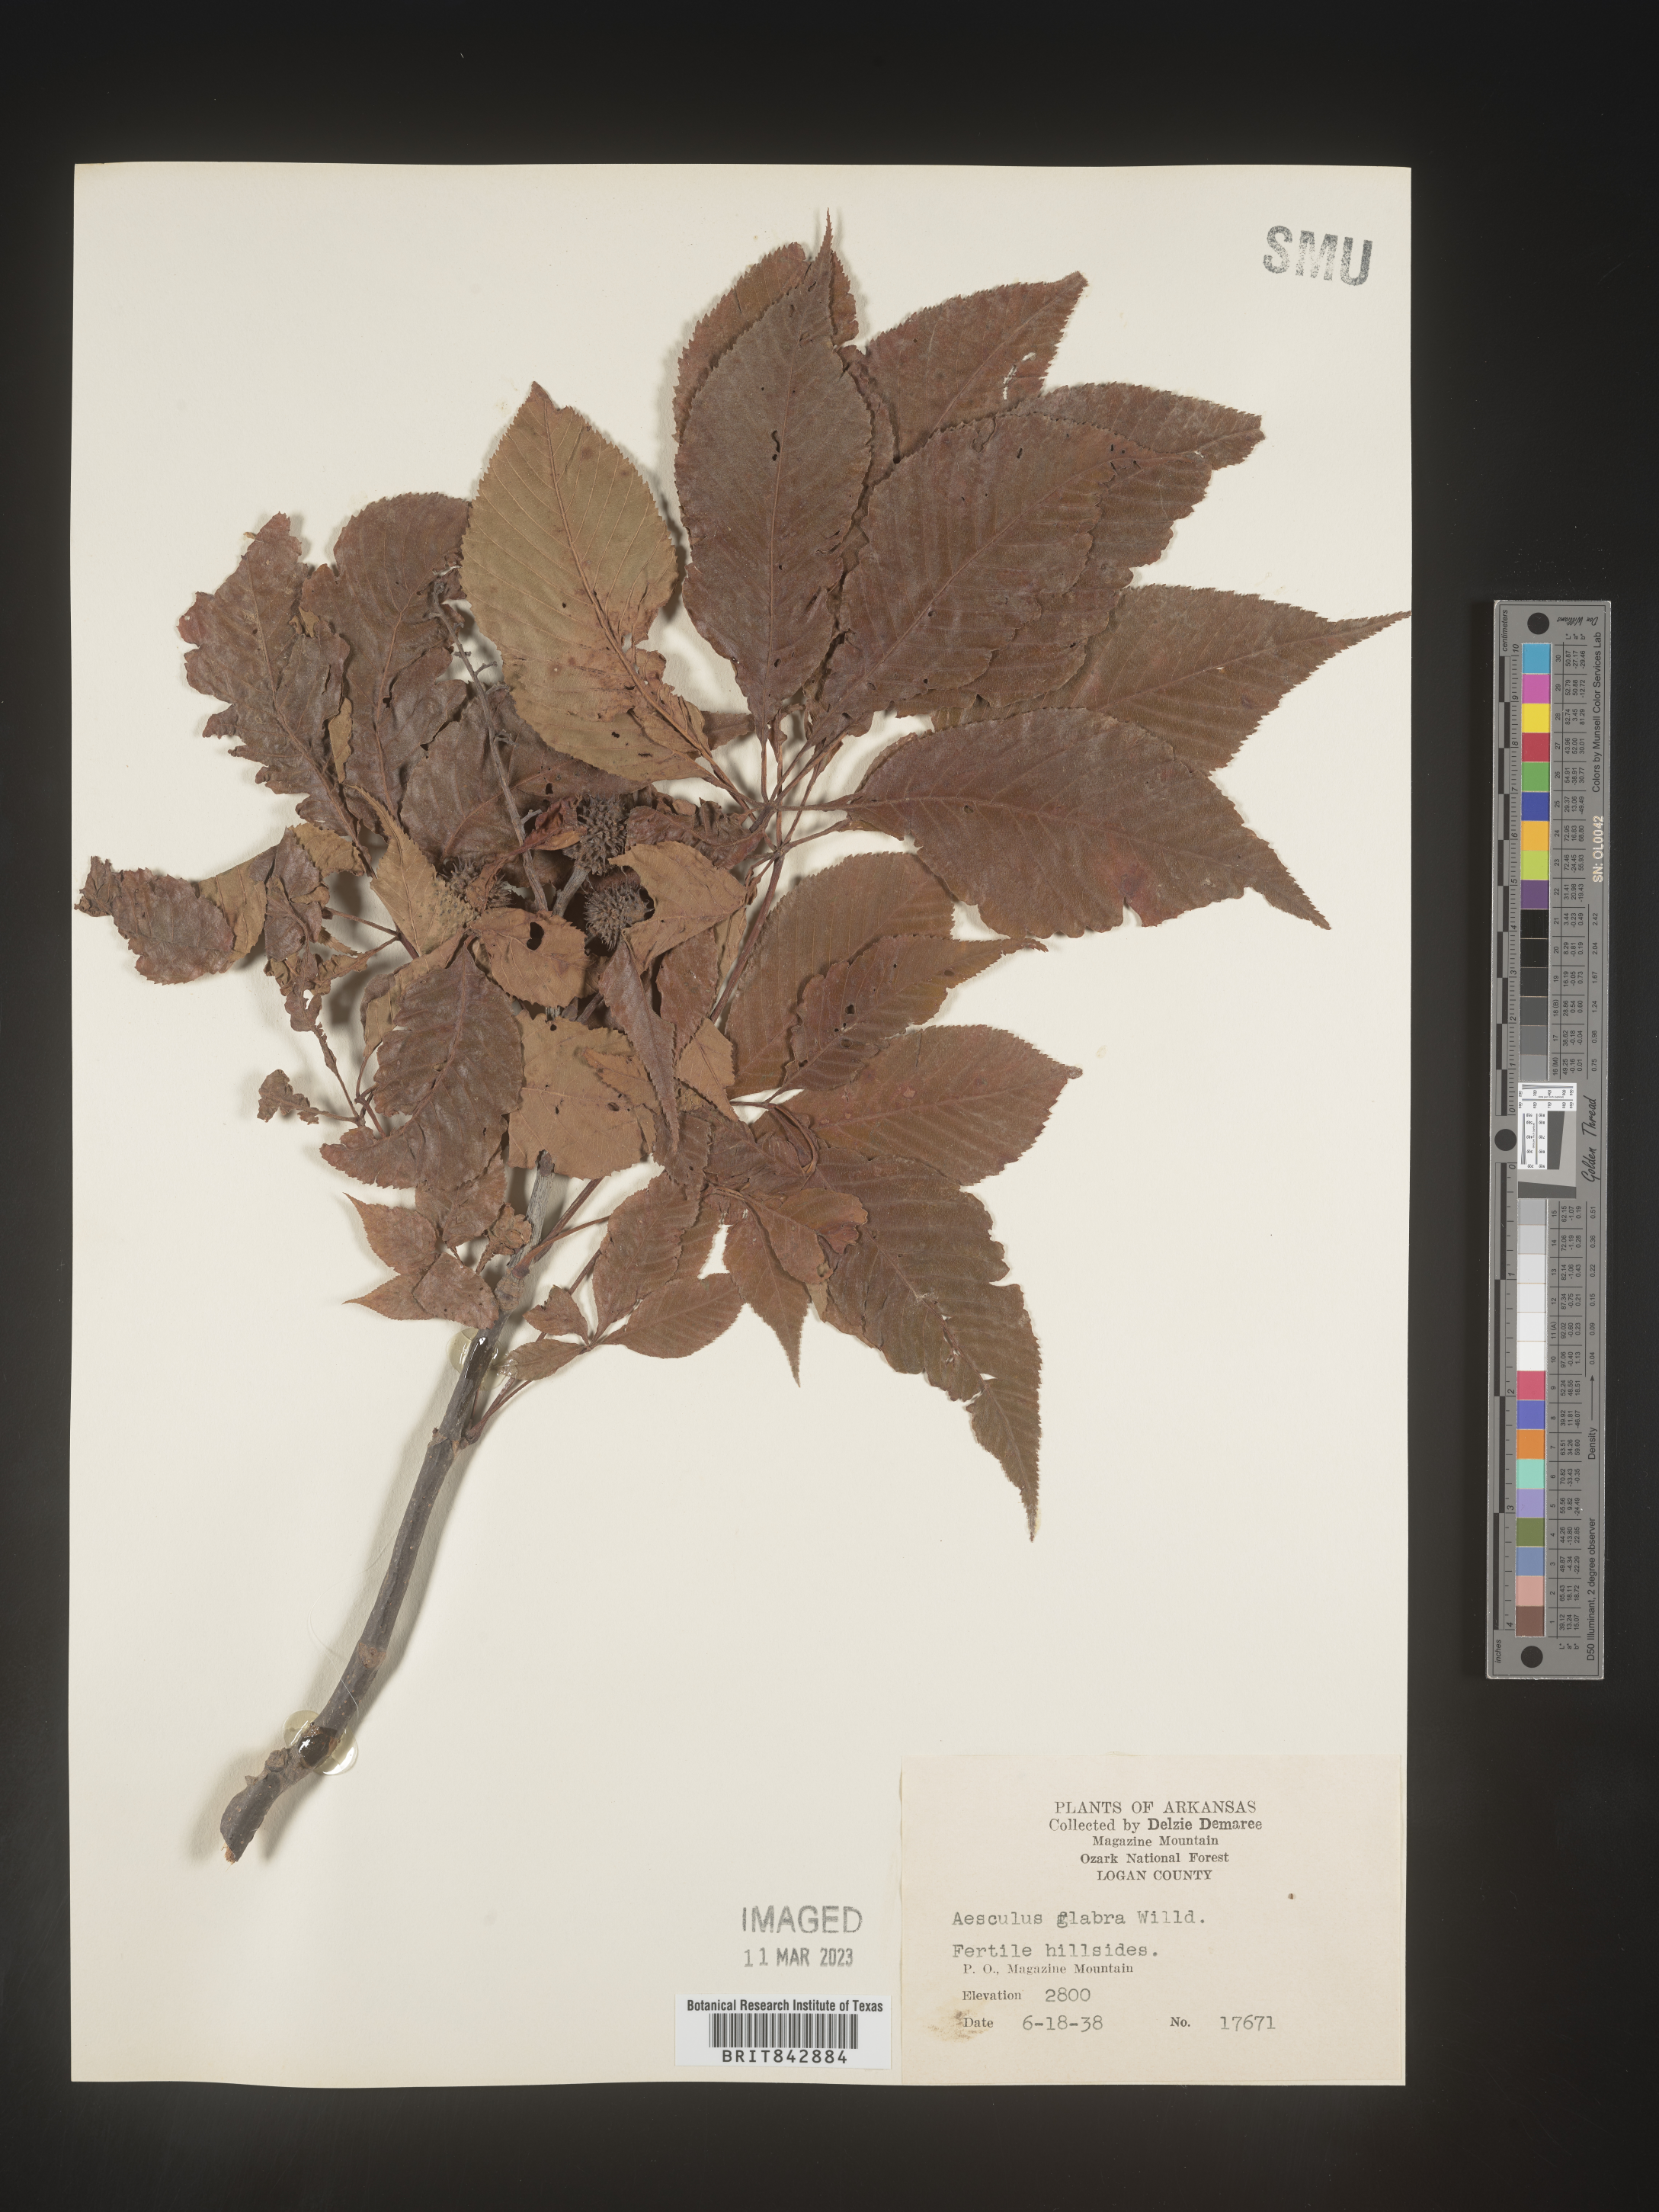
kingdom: Plantae
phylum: Tracheophyta
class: Magnoliopsida
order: Sapindales
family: Sapindaceae
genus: Aesculus
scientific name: Aesculus glabra
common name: Ohio buckeye
